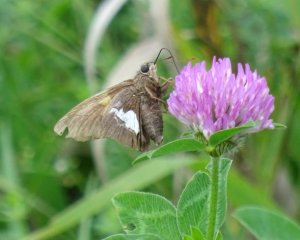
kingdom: Animalia
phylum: Arthropoda
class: Insecta
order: Lepidoptera
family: Hesperiidae
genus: Epargyreus
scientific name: Epargyreus clarus
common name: Silver-spotted Skipper
